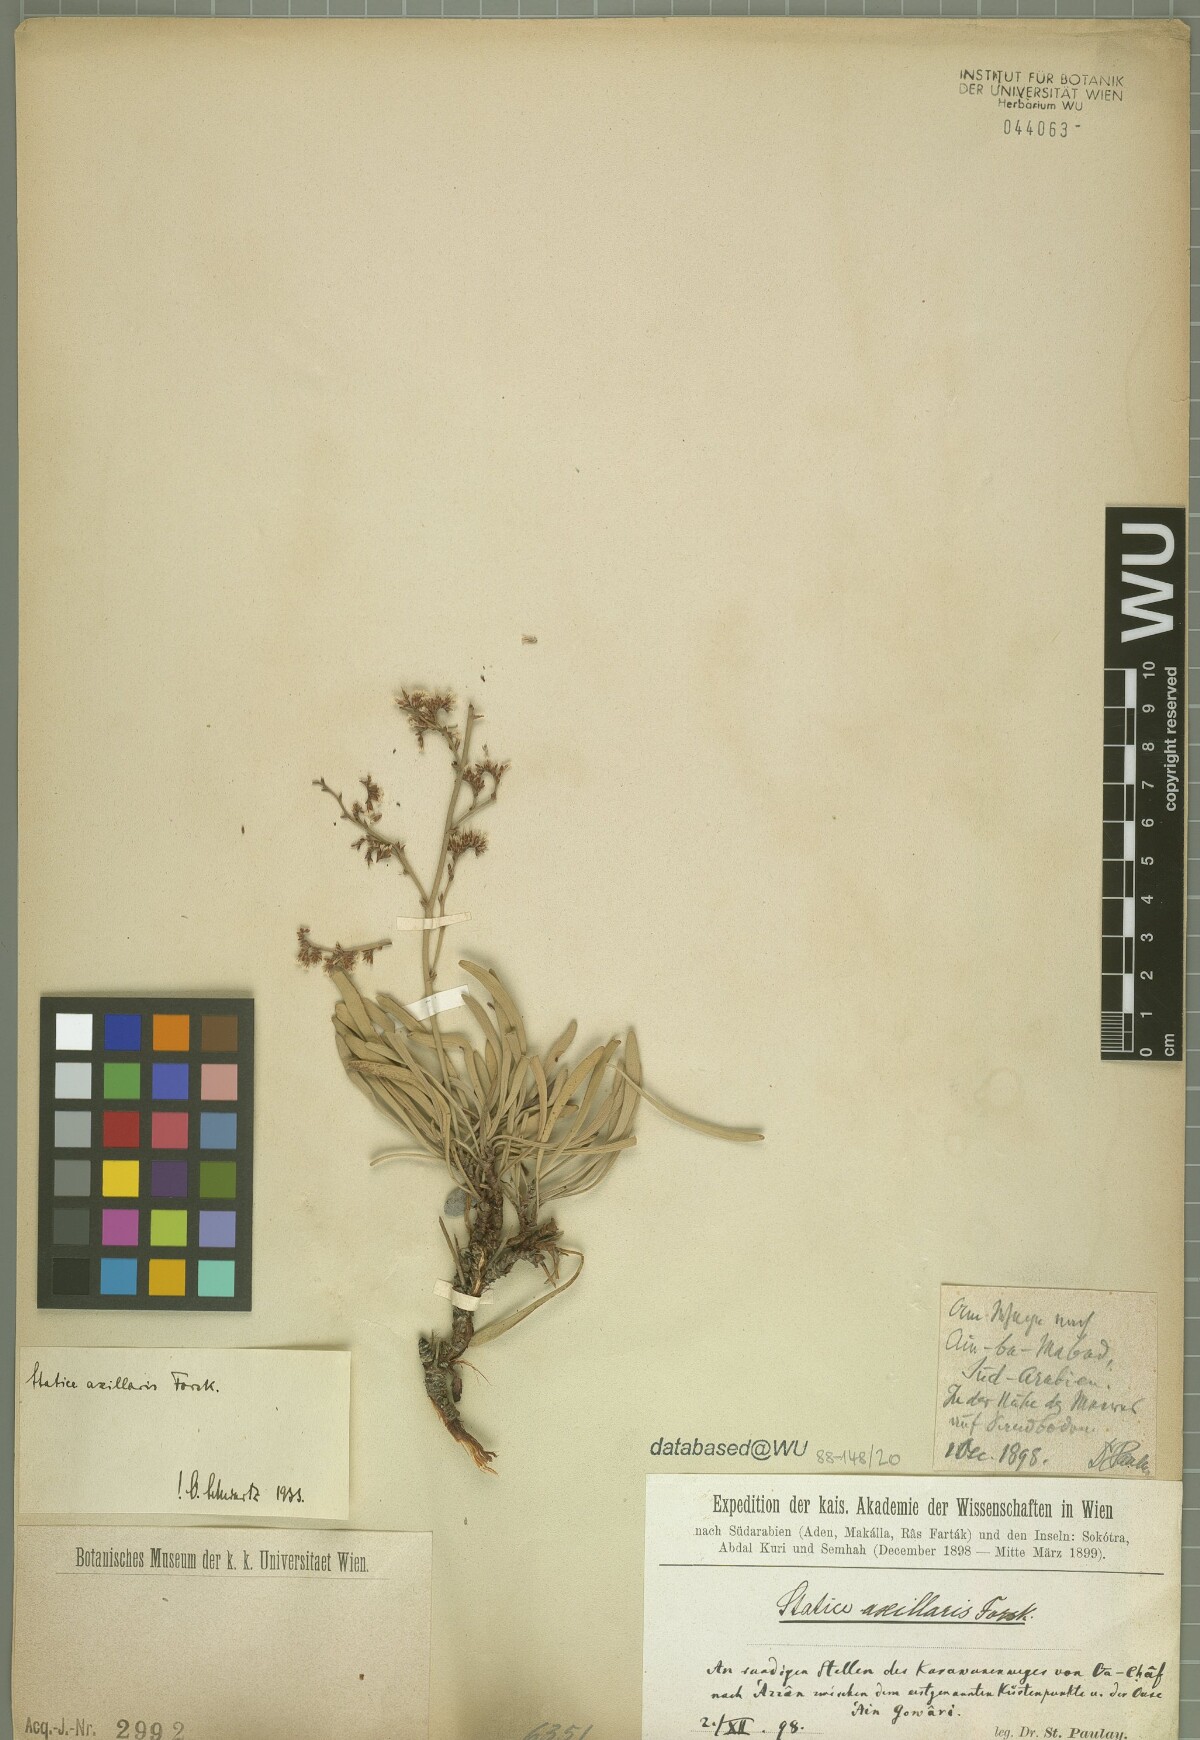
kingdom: Plantae
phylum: Tracheophyta
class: Magnoliopsida
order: Caryophyllales
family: Plumbaginaceae
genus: Limonium
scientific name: Limonium axillare
